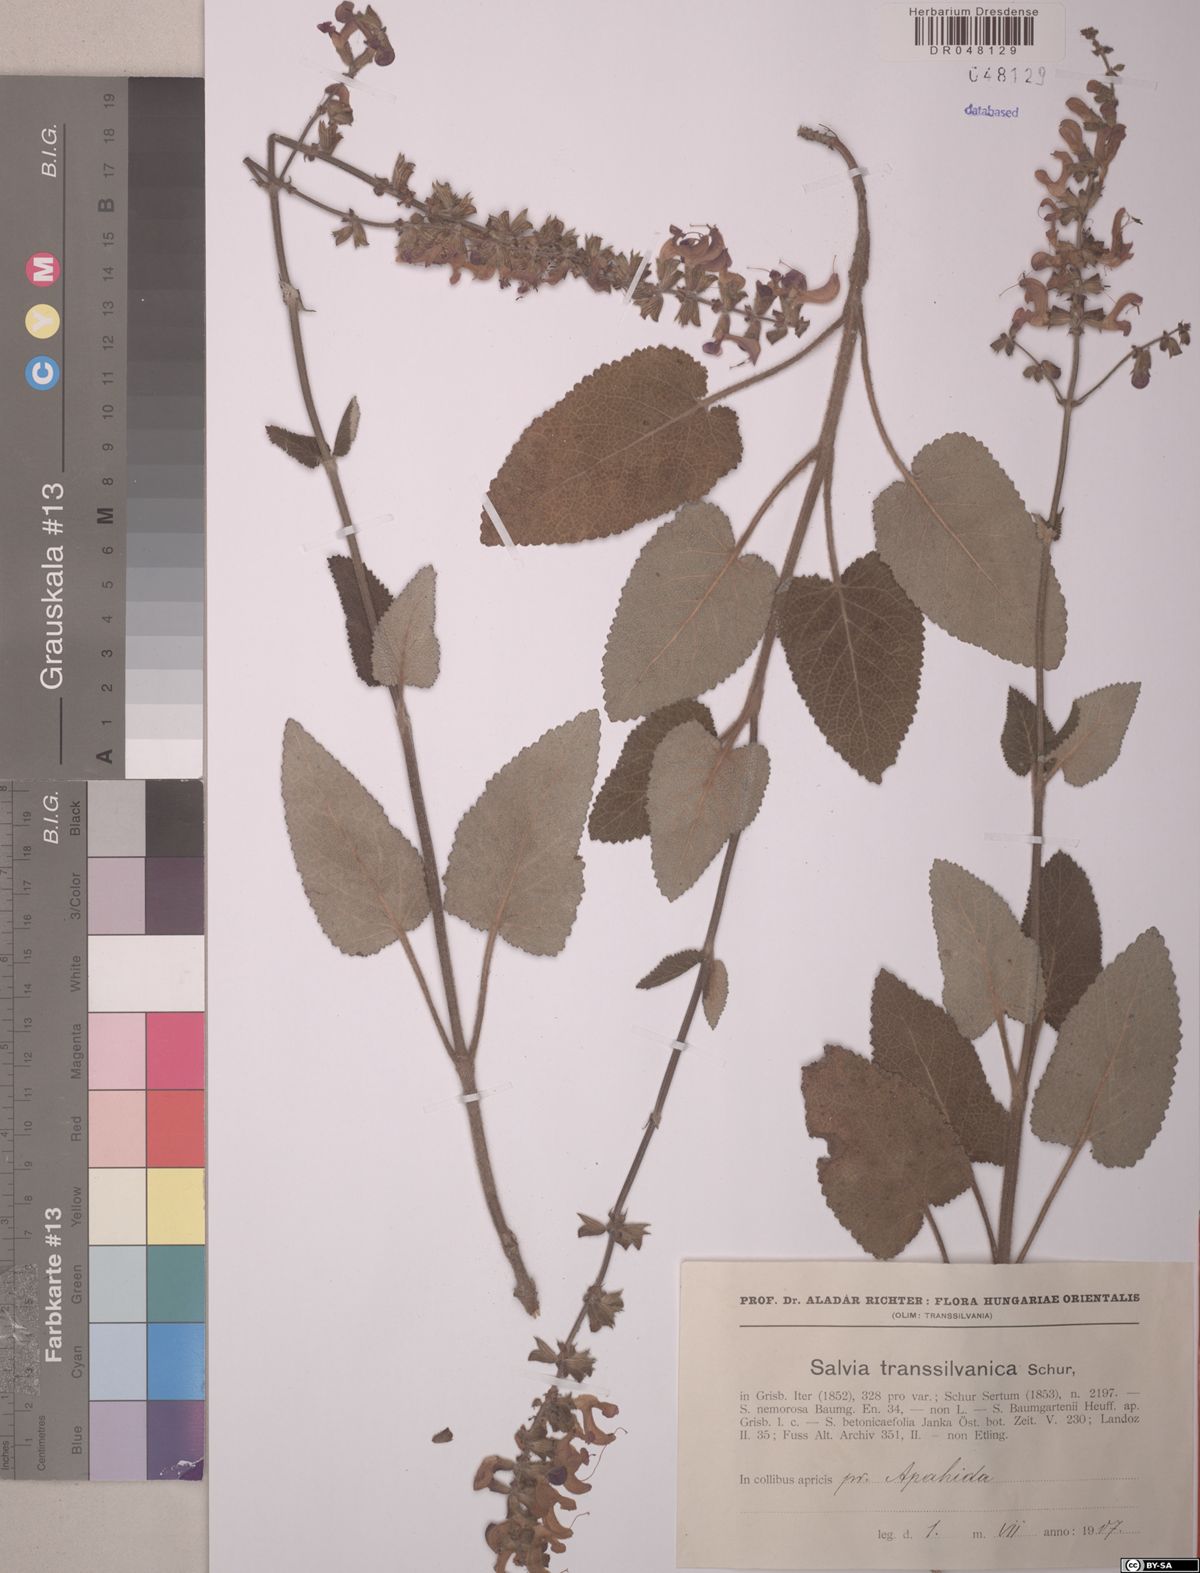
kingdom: Plantae
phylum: Tracheophyta
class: Magnoliopsida
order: Lamiales
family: Lamiaceae
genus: Salvia
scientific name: Salvia transsylvanica
